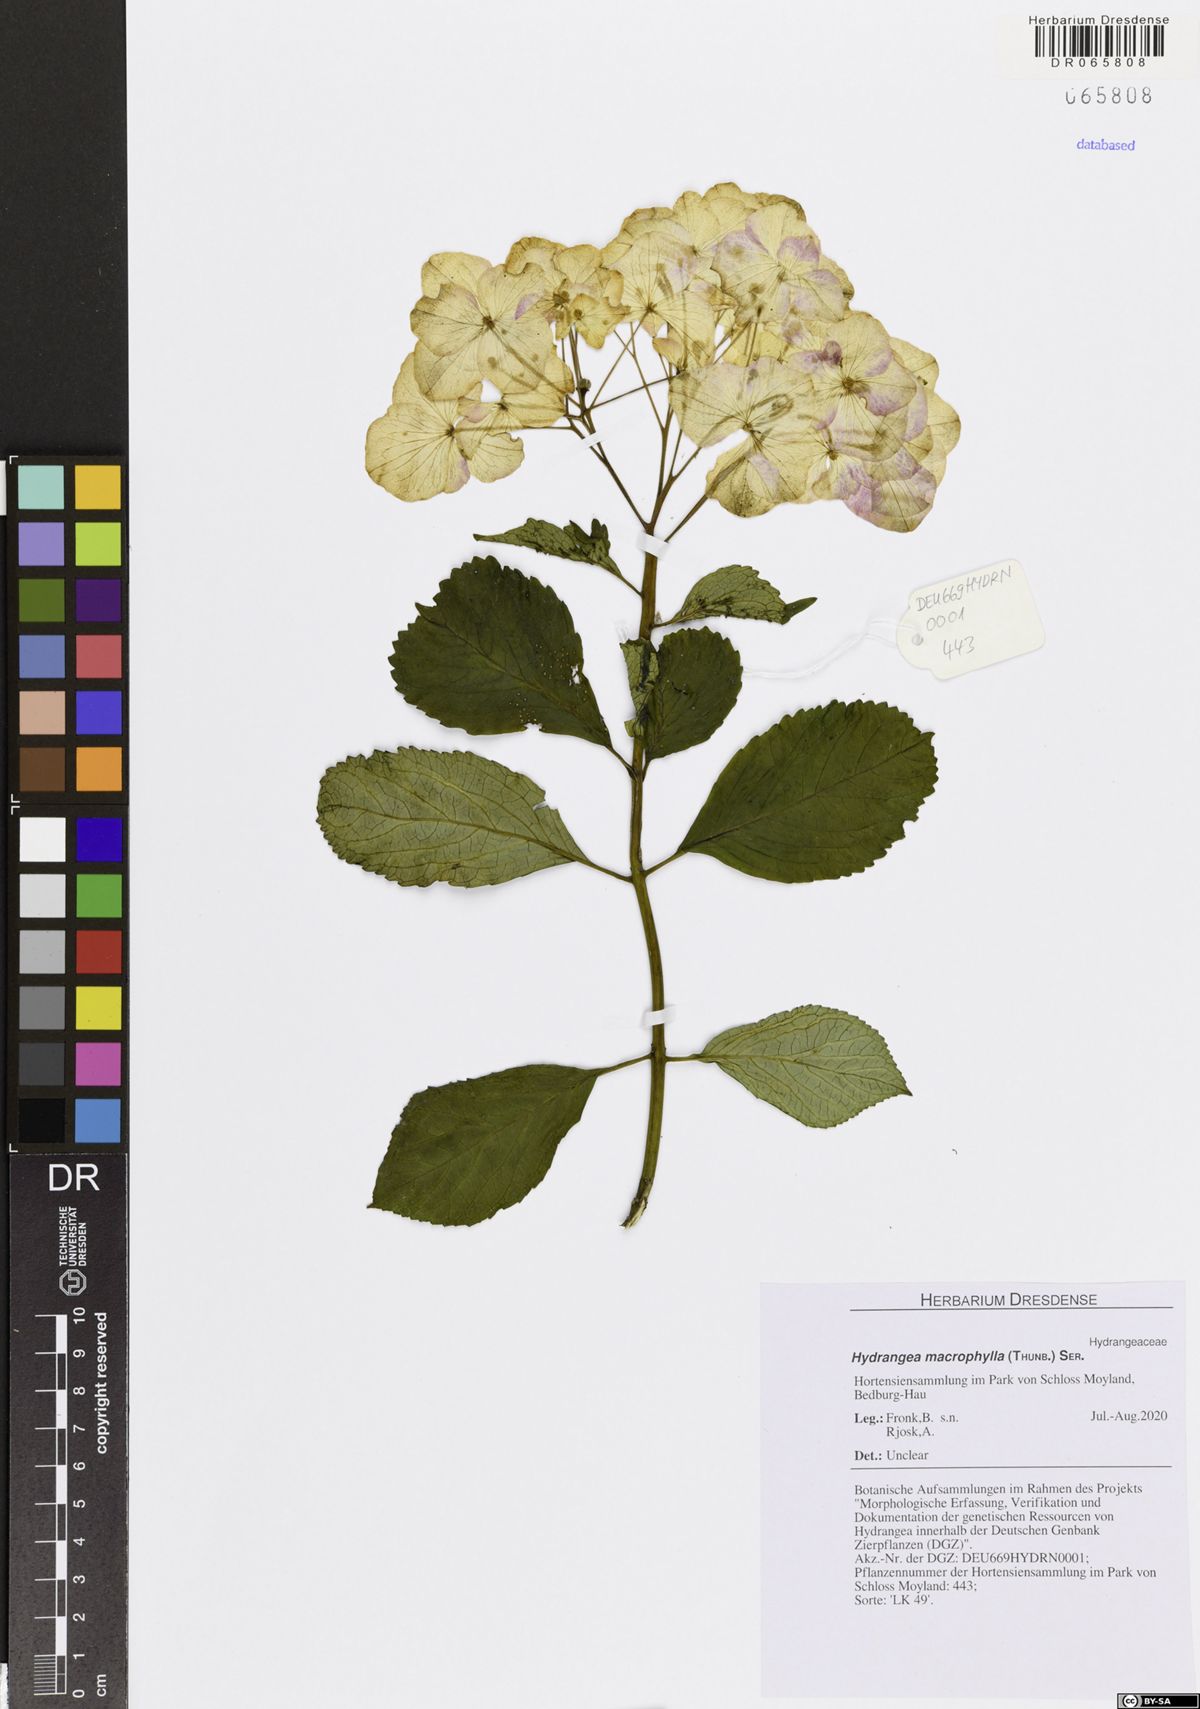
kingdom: Plantae
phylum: Tracheophyta
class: Magnoliopsida
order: Cornales
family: Hydrangeaceae
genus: Hydrangea
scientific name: Hydrangea macrophylla
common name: Hydrangea
